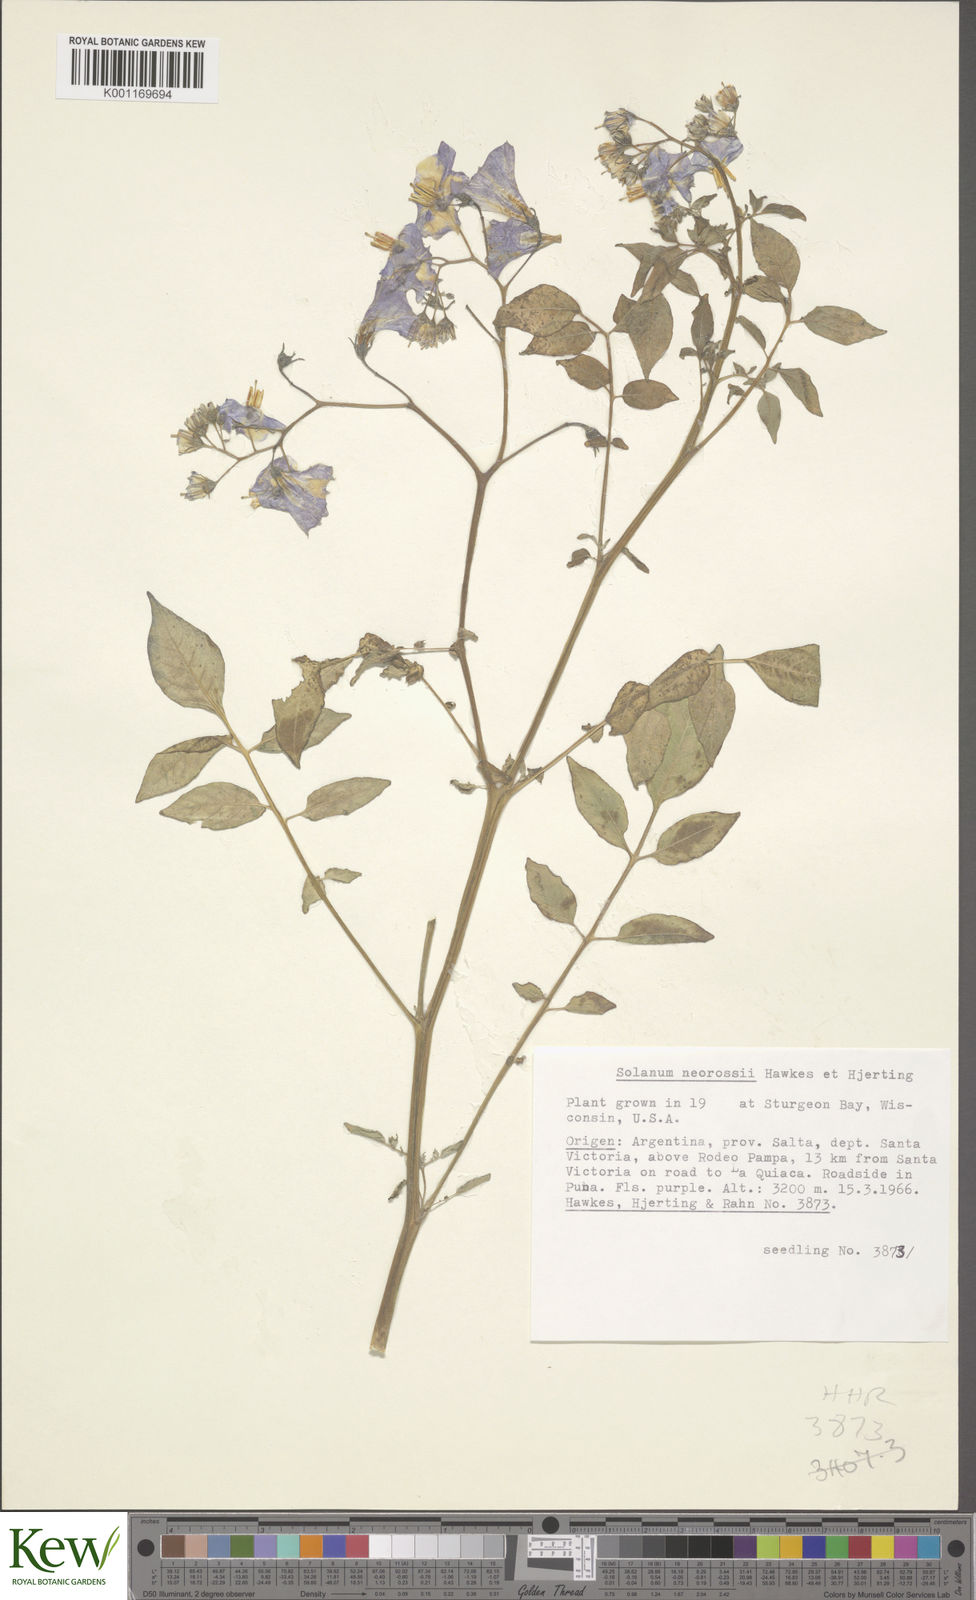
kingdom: Plantae
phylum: Tracheophyta
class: Magnoliopsida
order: Solanales
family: Solanaceae
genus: Solanum
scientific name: Solanum neorossii
